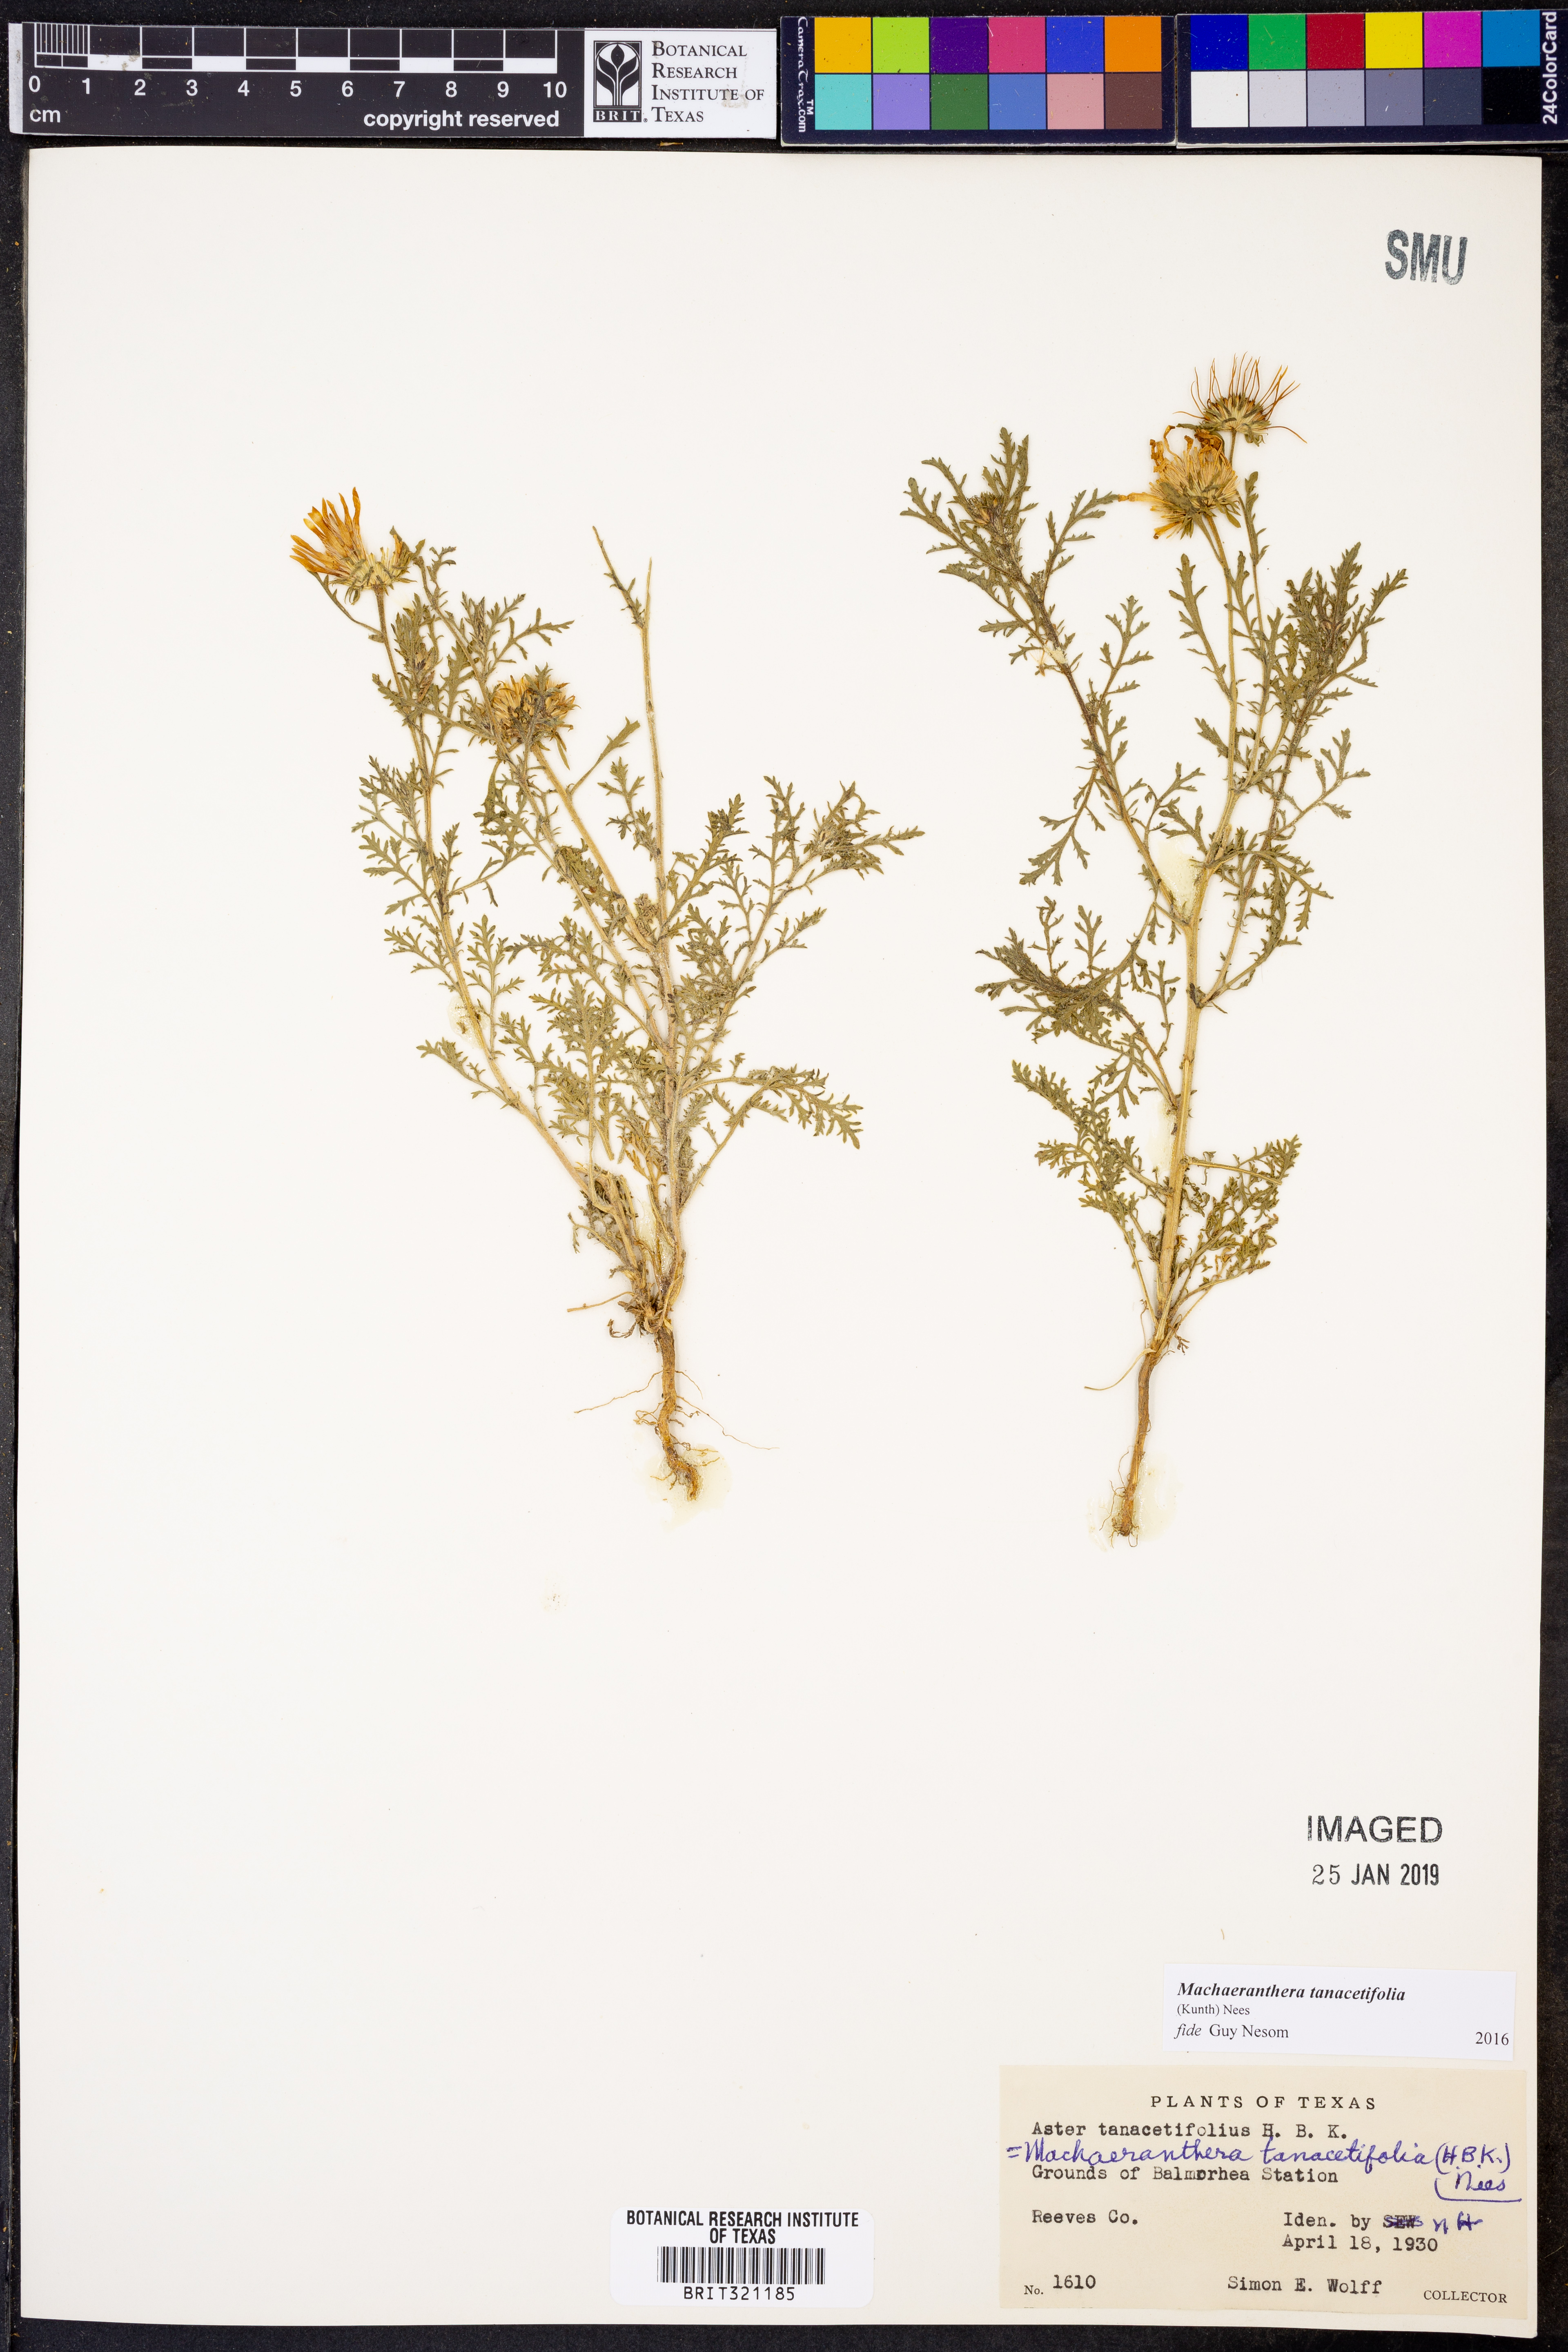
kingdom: Plantae
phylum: Tracheophyta
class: Magnoliopsida
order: Asterales
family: Asteraceae
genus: Machaeranthera
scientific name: Machaeranthera tanacetifolia
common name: Tansy-aster
